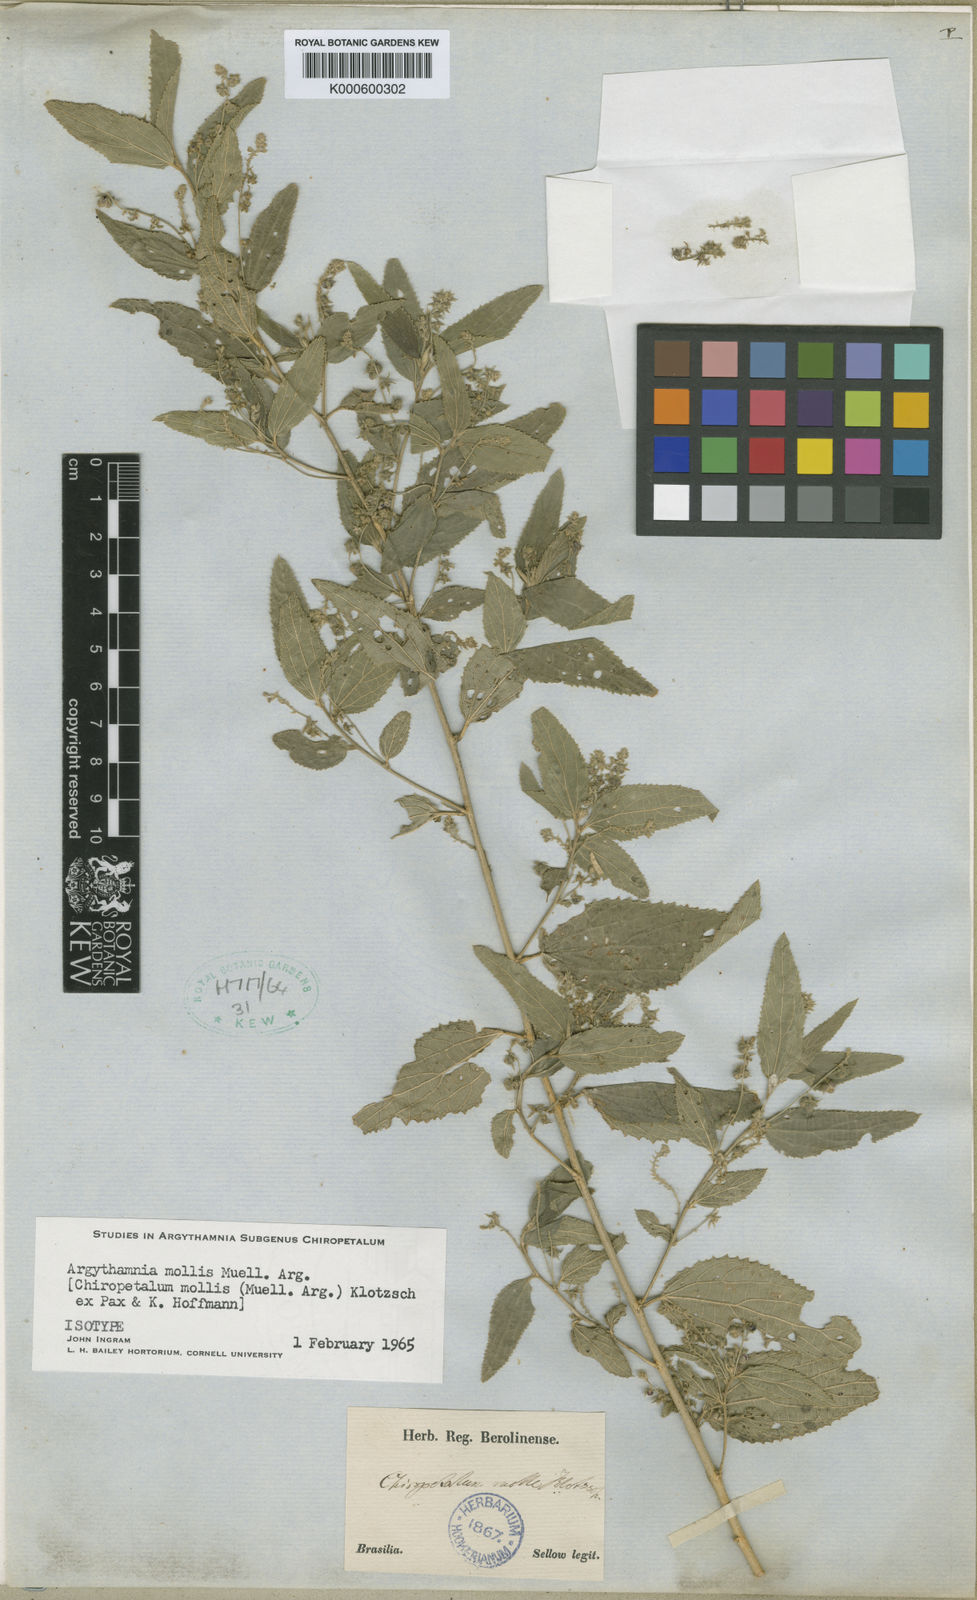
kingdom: Plantae
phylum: Tracheophyta
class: Magnoliopsida
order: Malpighiales
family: Euphorbiaceae
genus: Chiropetalum
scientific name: Chiropetalum molle
